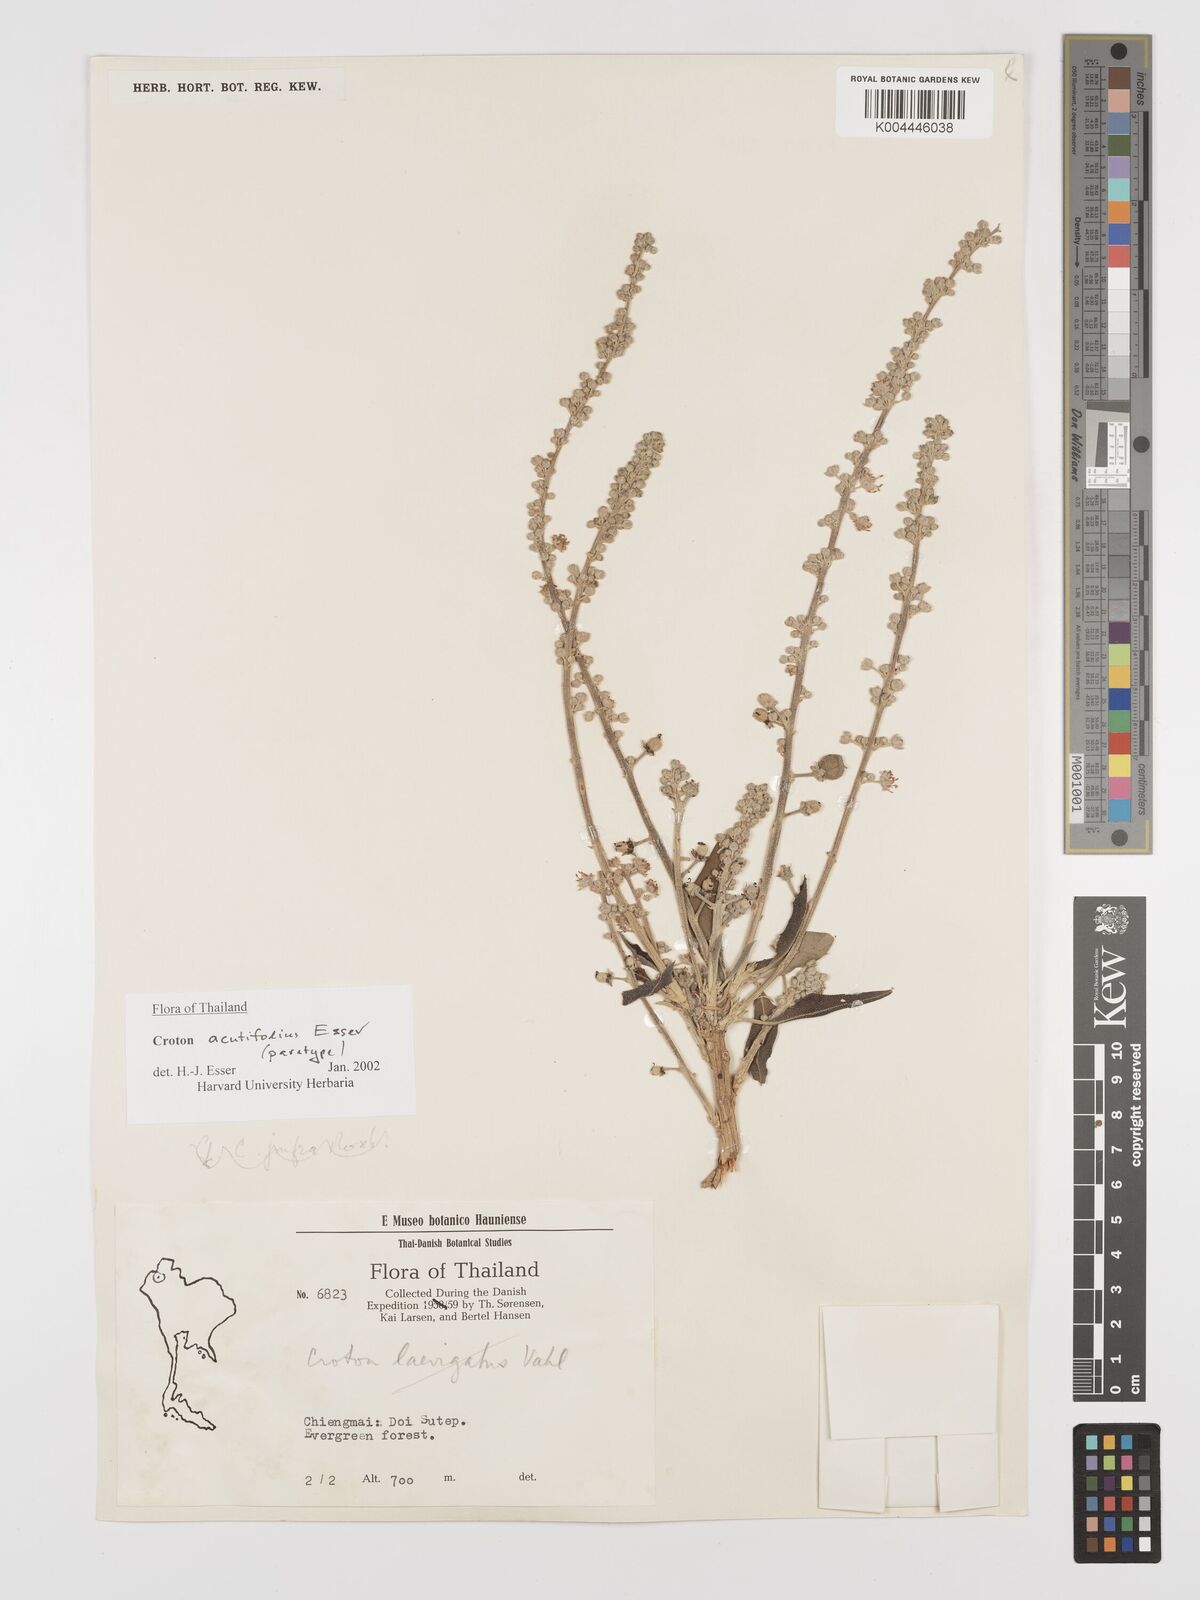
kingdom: Plantae
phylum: Tracheophyta
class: Magnoliopsida
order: Malpighiales
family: Euphorbiaceae
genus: Croton
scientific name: Croton acutifolius
